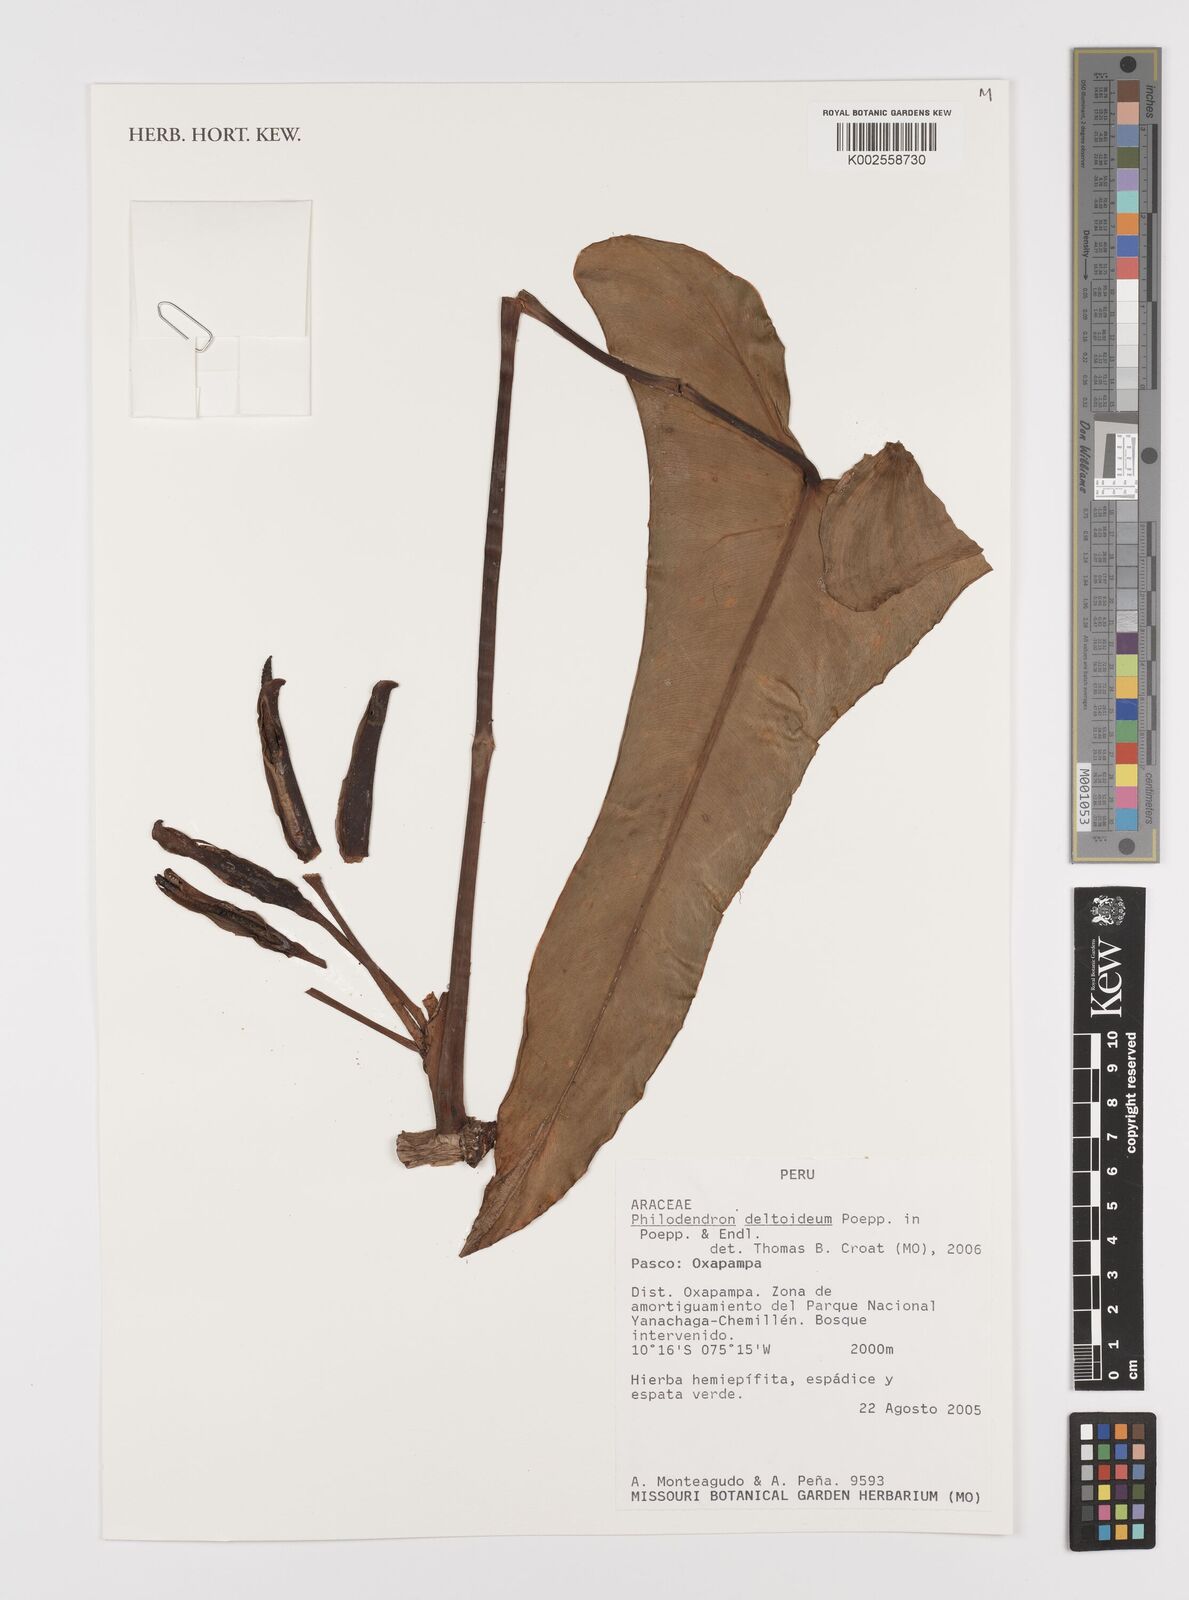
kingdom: Plantae
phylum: Tracheophyta
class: Liliopsida
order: Alismatales
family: Araceae
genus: Philodendron
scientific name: Philodendron deltoideum
